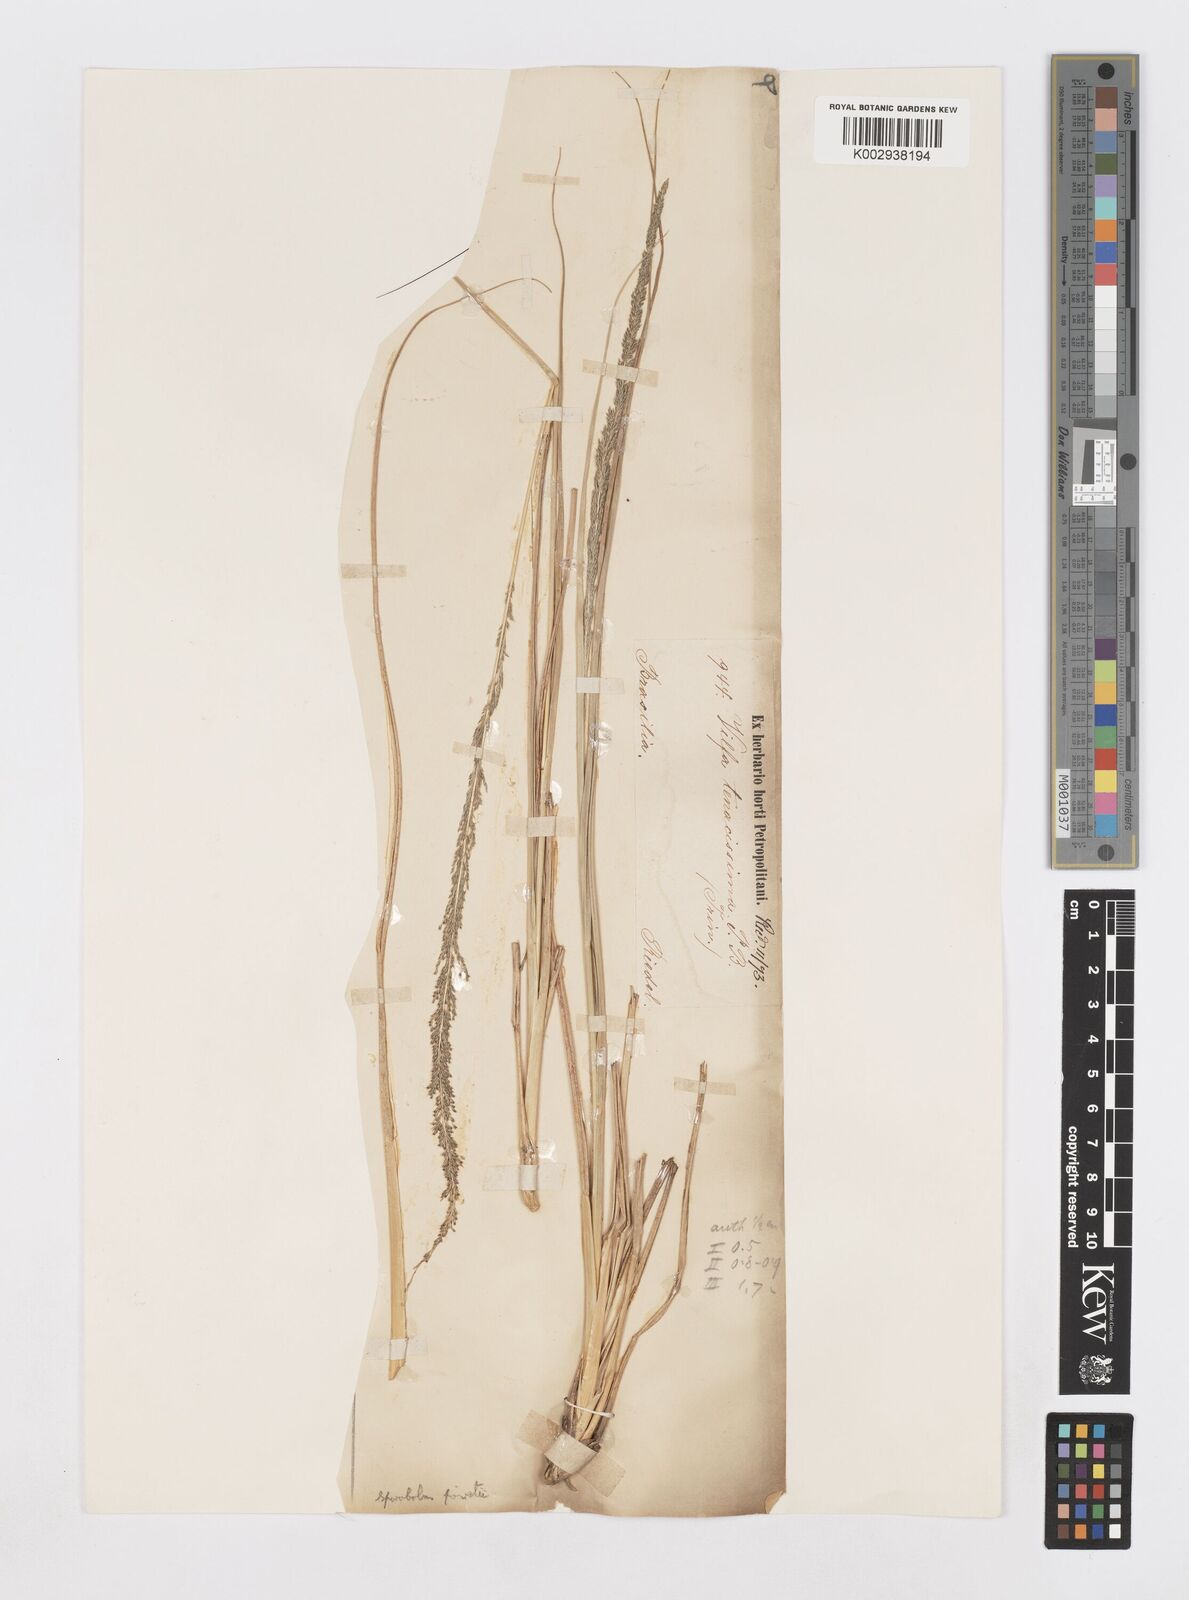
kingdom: Plantae
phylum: Tracheophyta
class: Liliopsida
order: Poales
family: Poaceae
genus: Sporobolus
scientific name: Sporobolus indicus
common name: Smut grass
